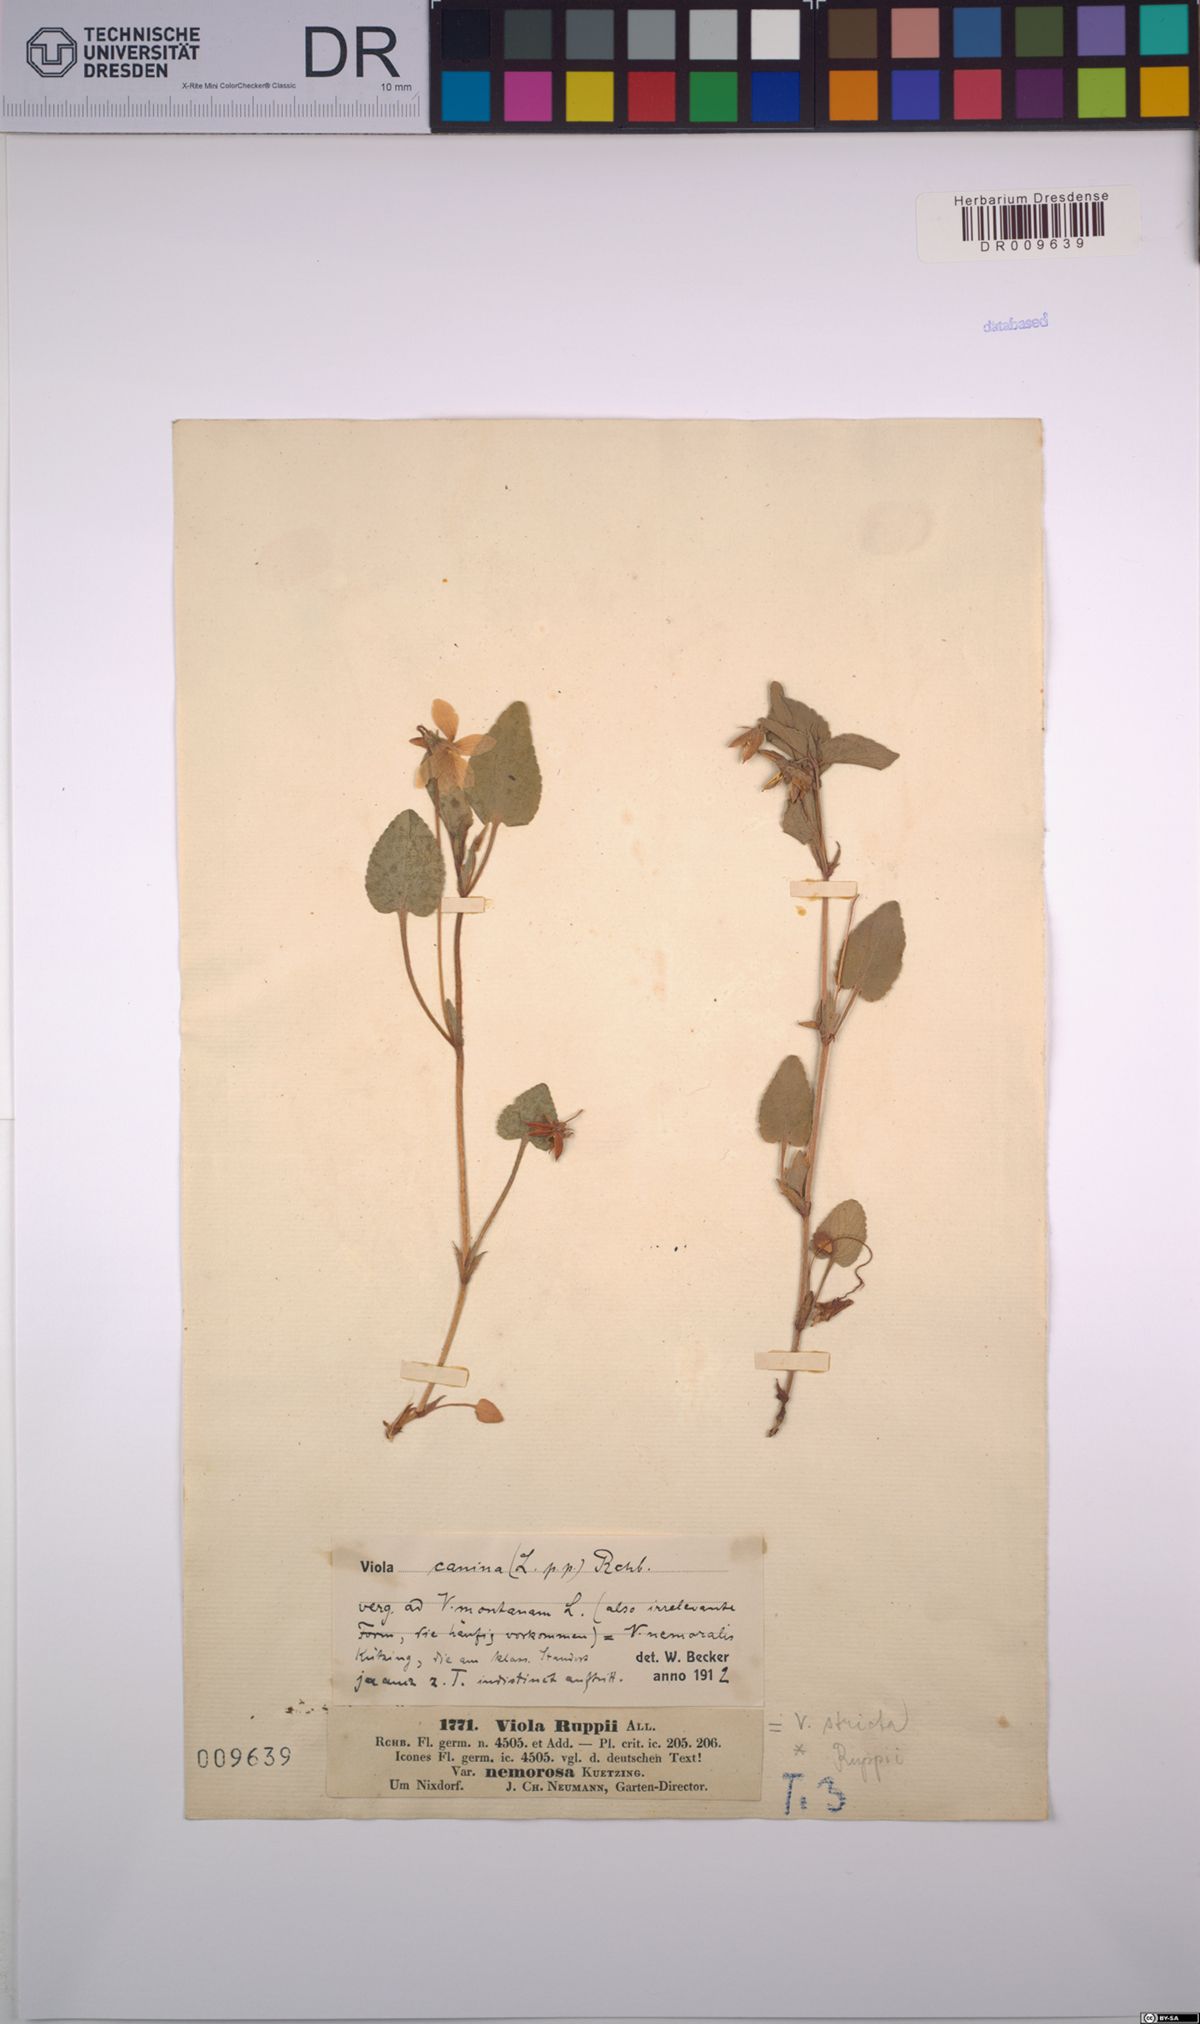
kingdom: Plantae
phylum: Tracheophyta
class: Magnoliopsida
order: Malpighiales
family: Violaceae
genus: Viola
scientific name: Viola canina
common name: Heath dog-violet
